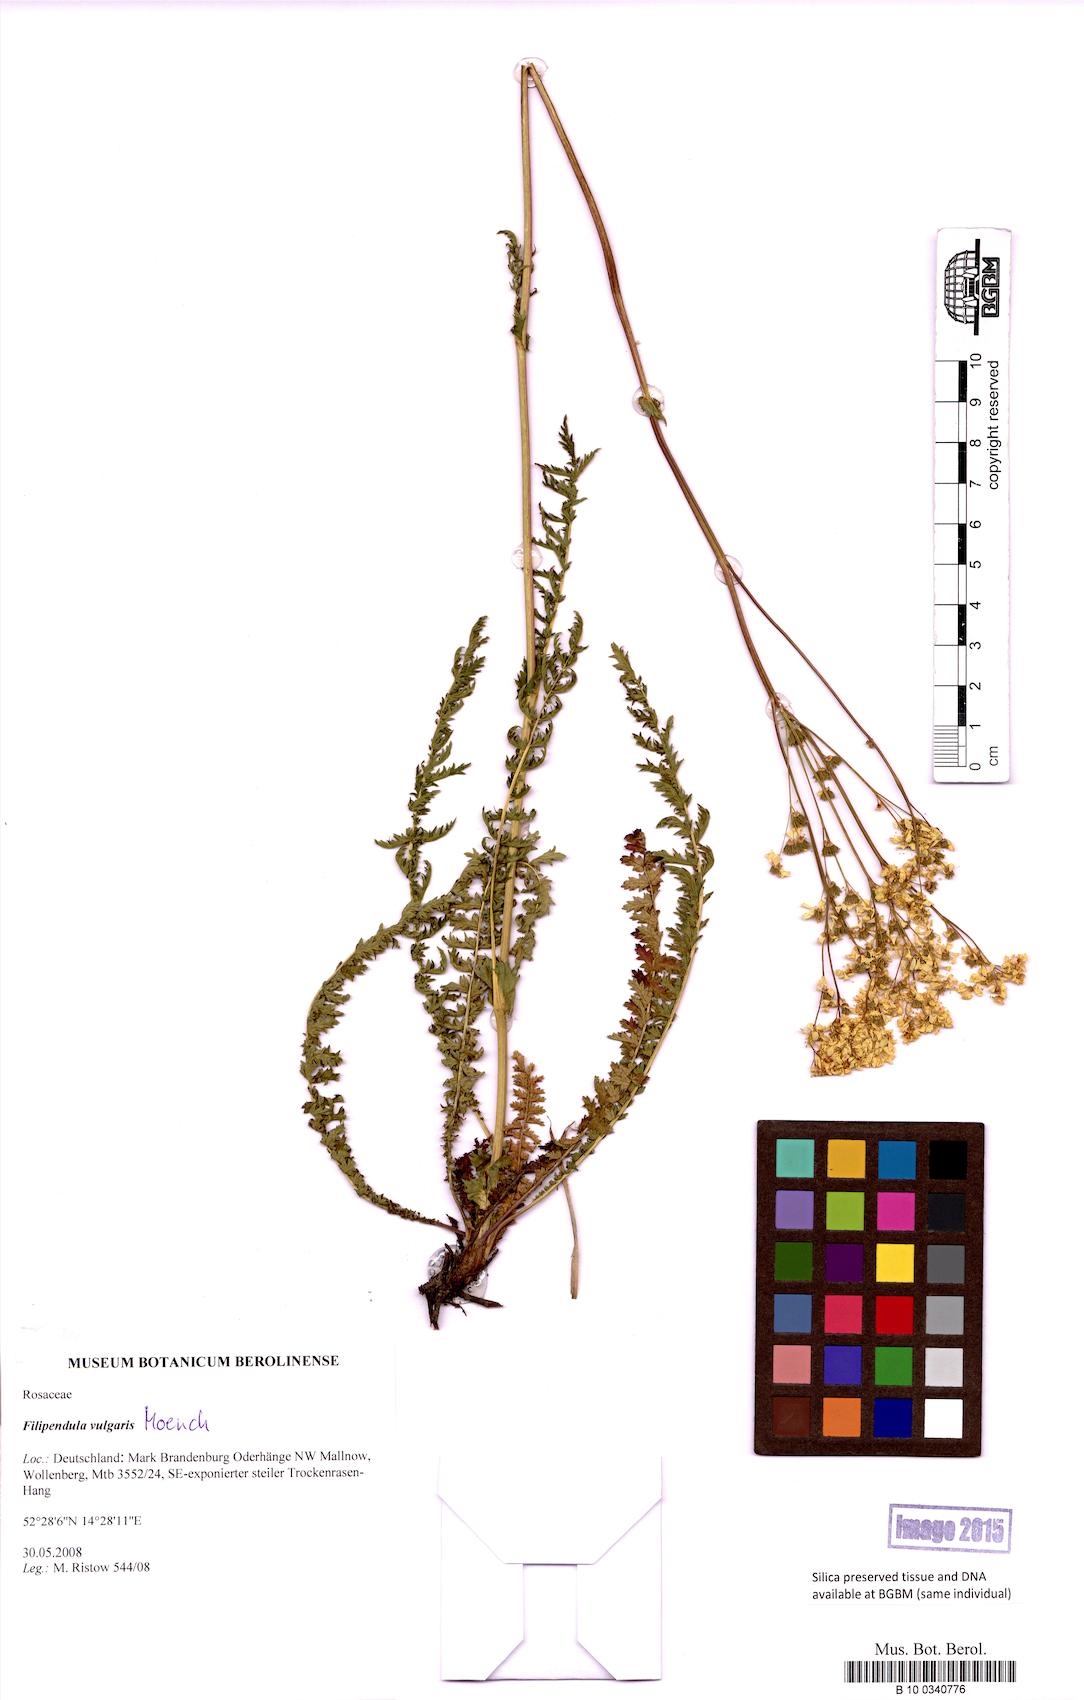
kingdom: Plantae
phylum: Tracheophyta
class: Magnoliopsida
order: Rosales
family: Rosaceae
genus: Filipendula
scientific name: Filipendula vulgaris
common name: Dropwort
